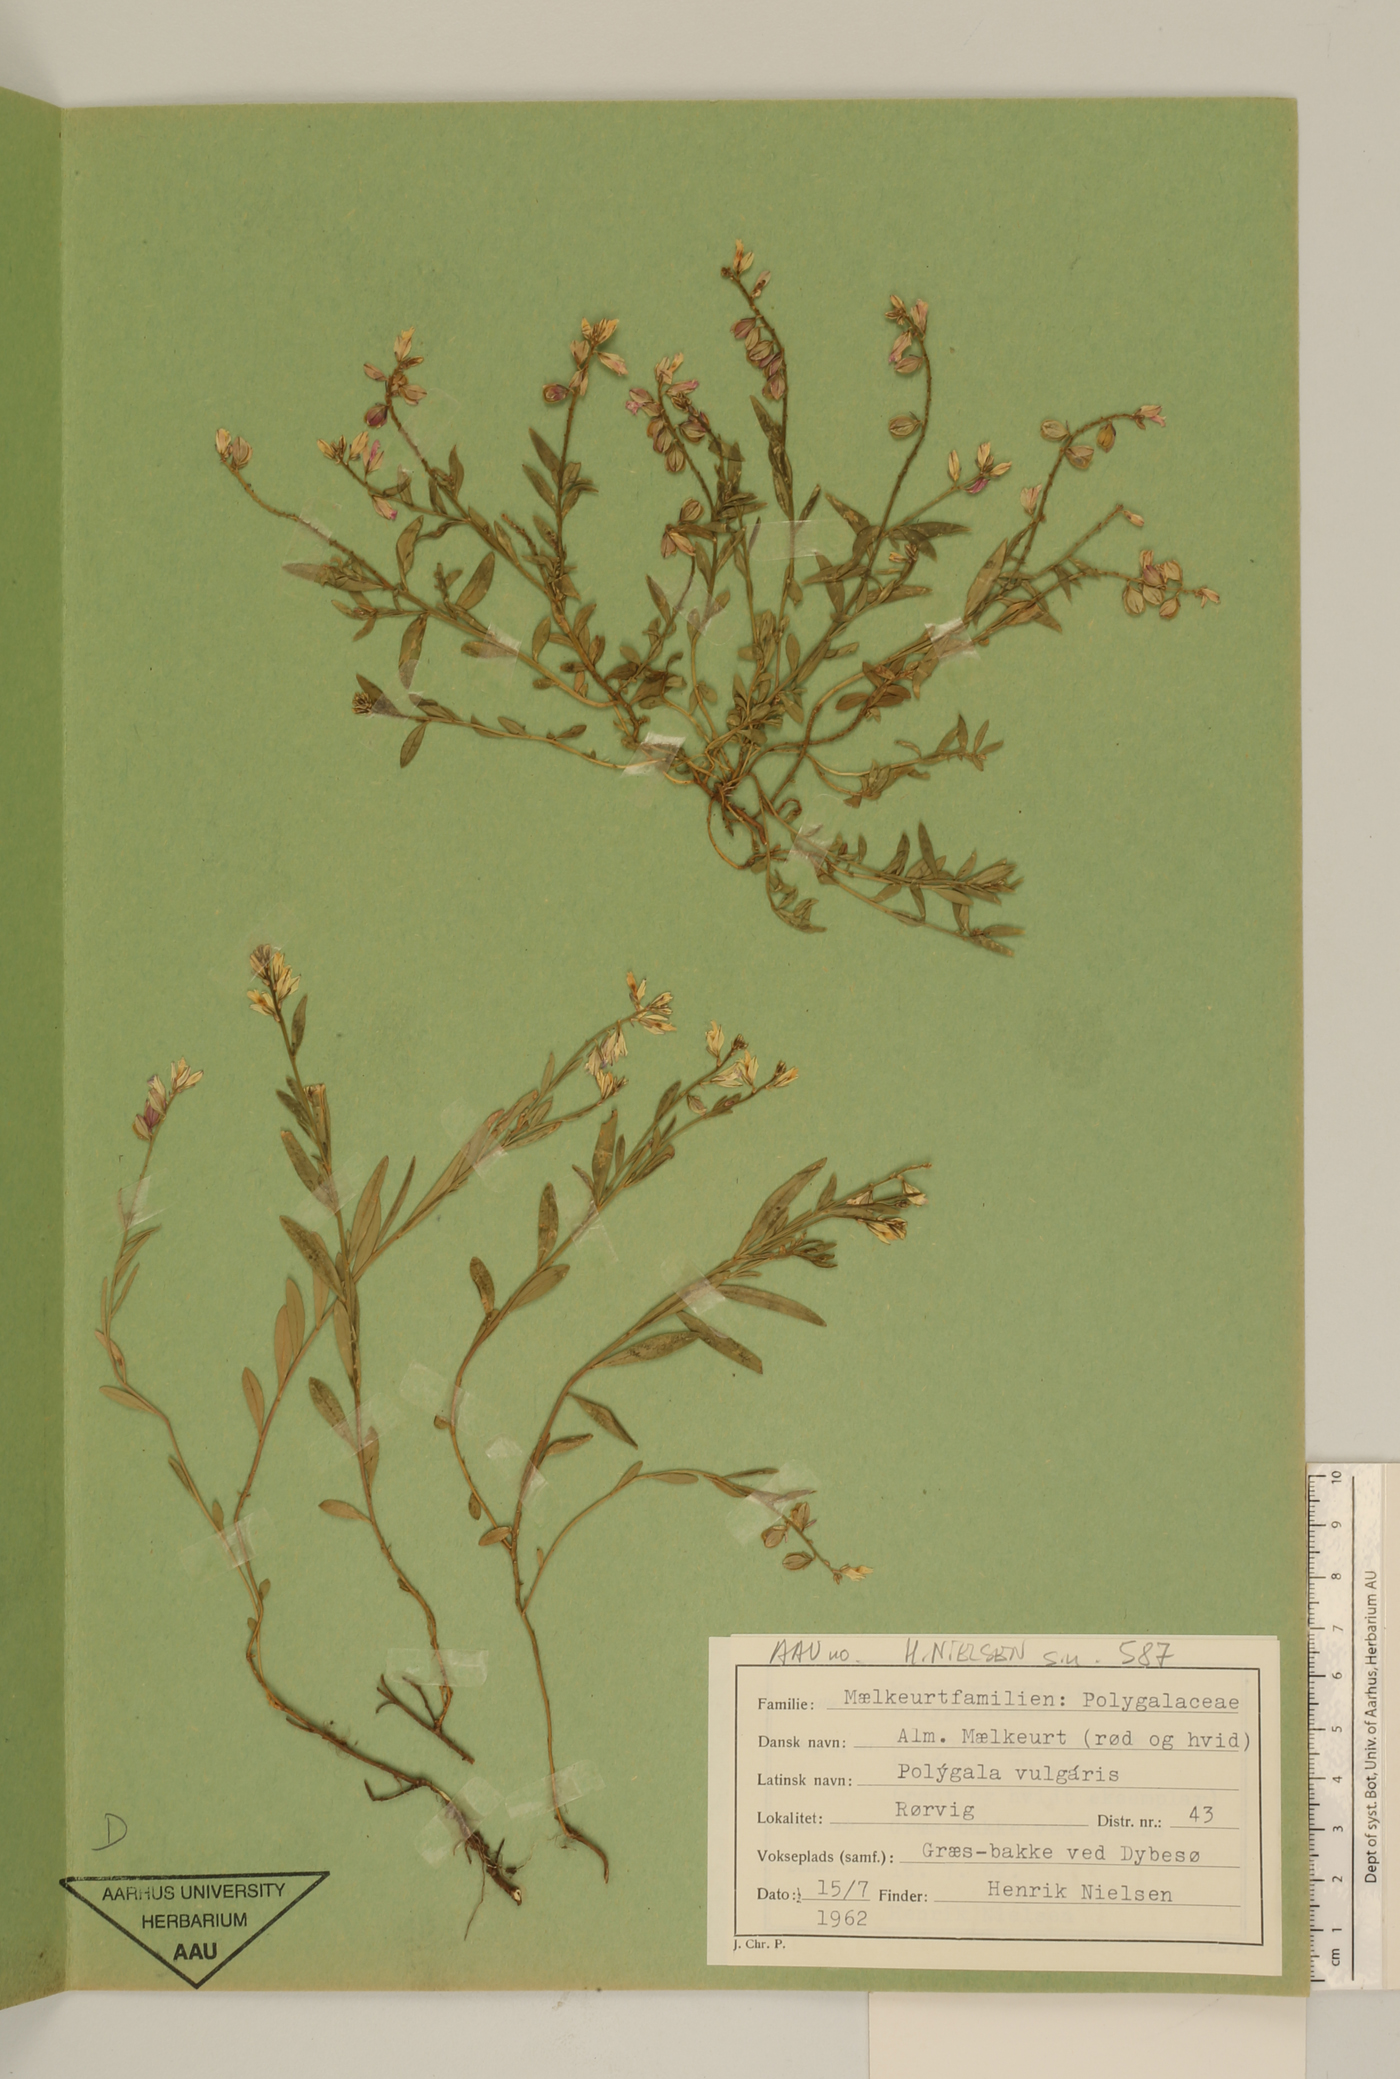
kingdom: Plantae
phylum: Tracheophyta
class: Magnoliopsida
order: Fabales
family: Polygalaceae
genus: Polygala
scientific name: Polygala vulgaris
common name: Common milkwort
